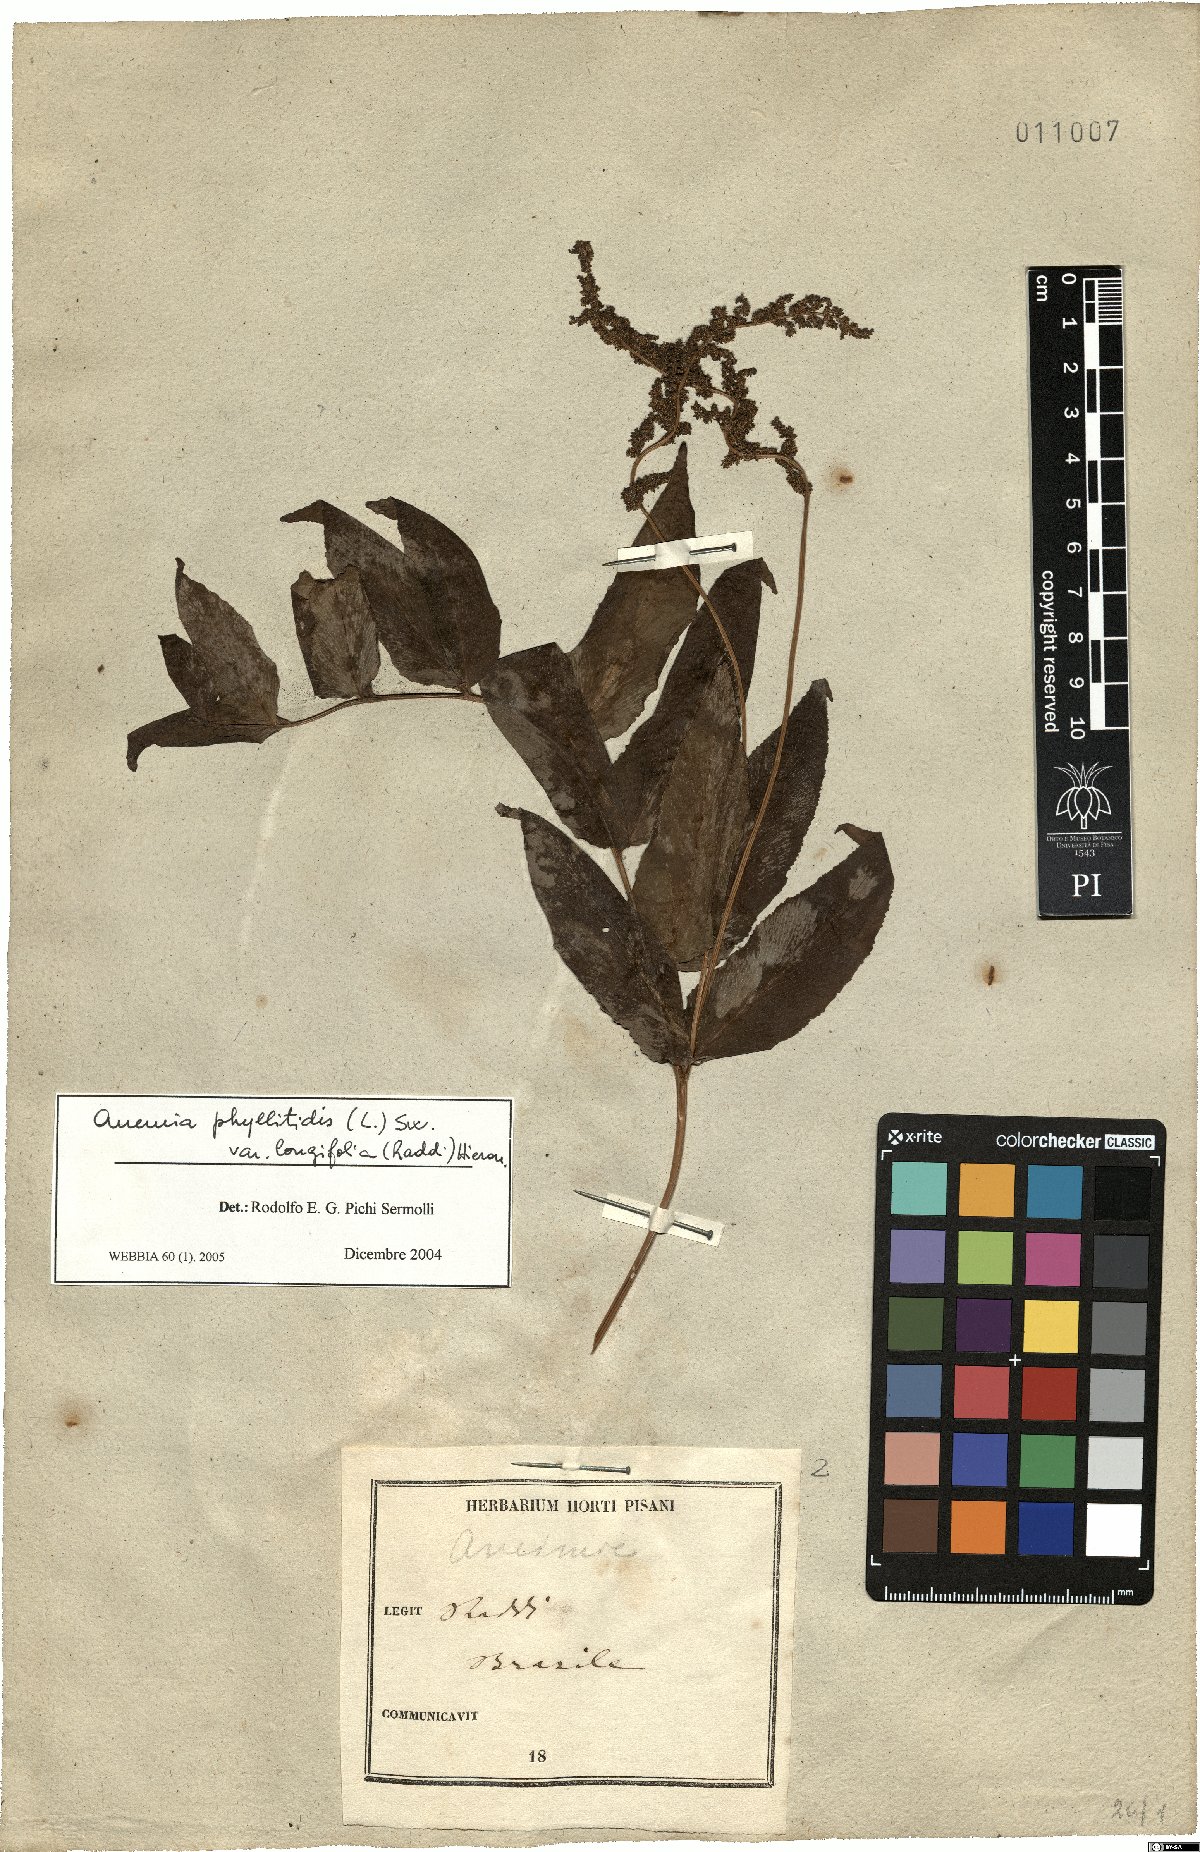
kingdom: Plantae
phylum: Tracheophyta
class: Polypodiopsida
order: Schizaeales
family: Anemiaceae
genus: Anemia
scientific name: Anemia phyllitidis
